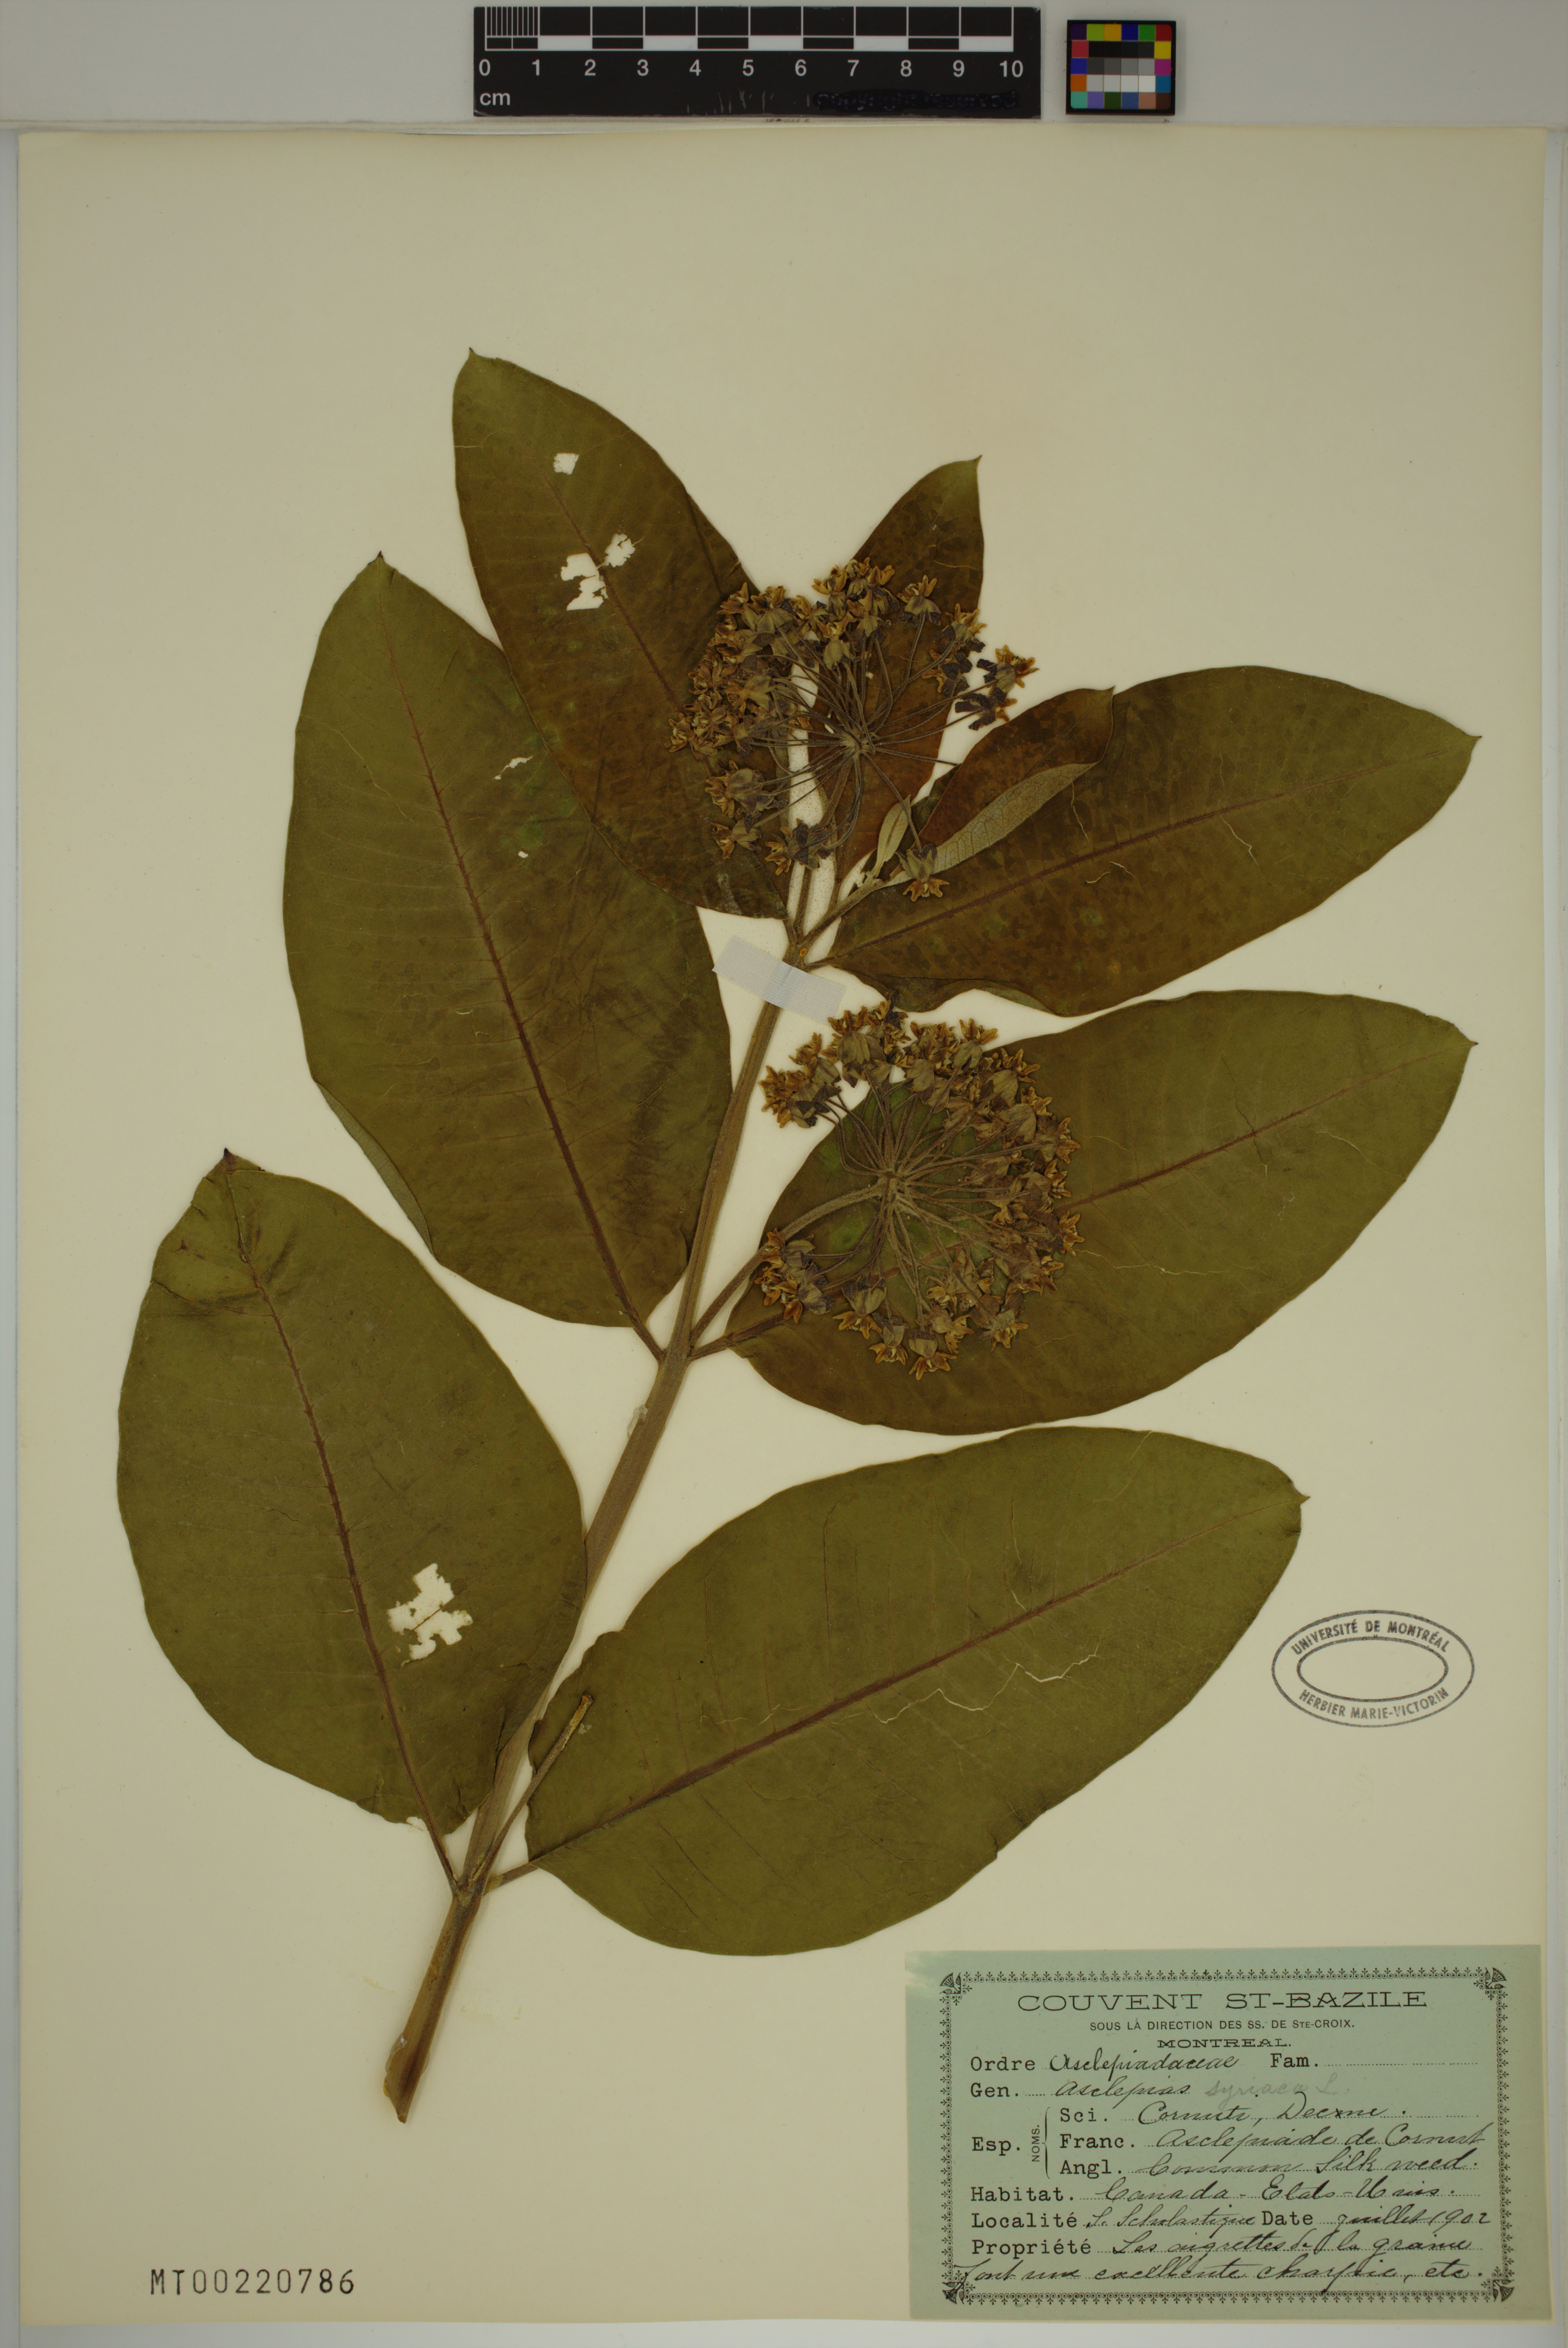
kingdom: Plantae
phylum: Tracheophyta
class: Magnoliopsida
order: Gentianales
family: Apocynaceae
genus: Asclepias
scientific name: Asclepias syriaca
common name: Common milkweed
